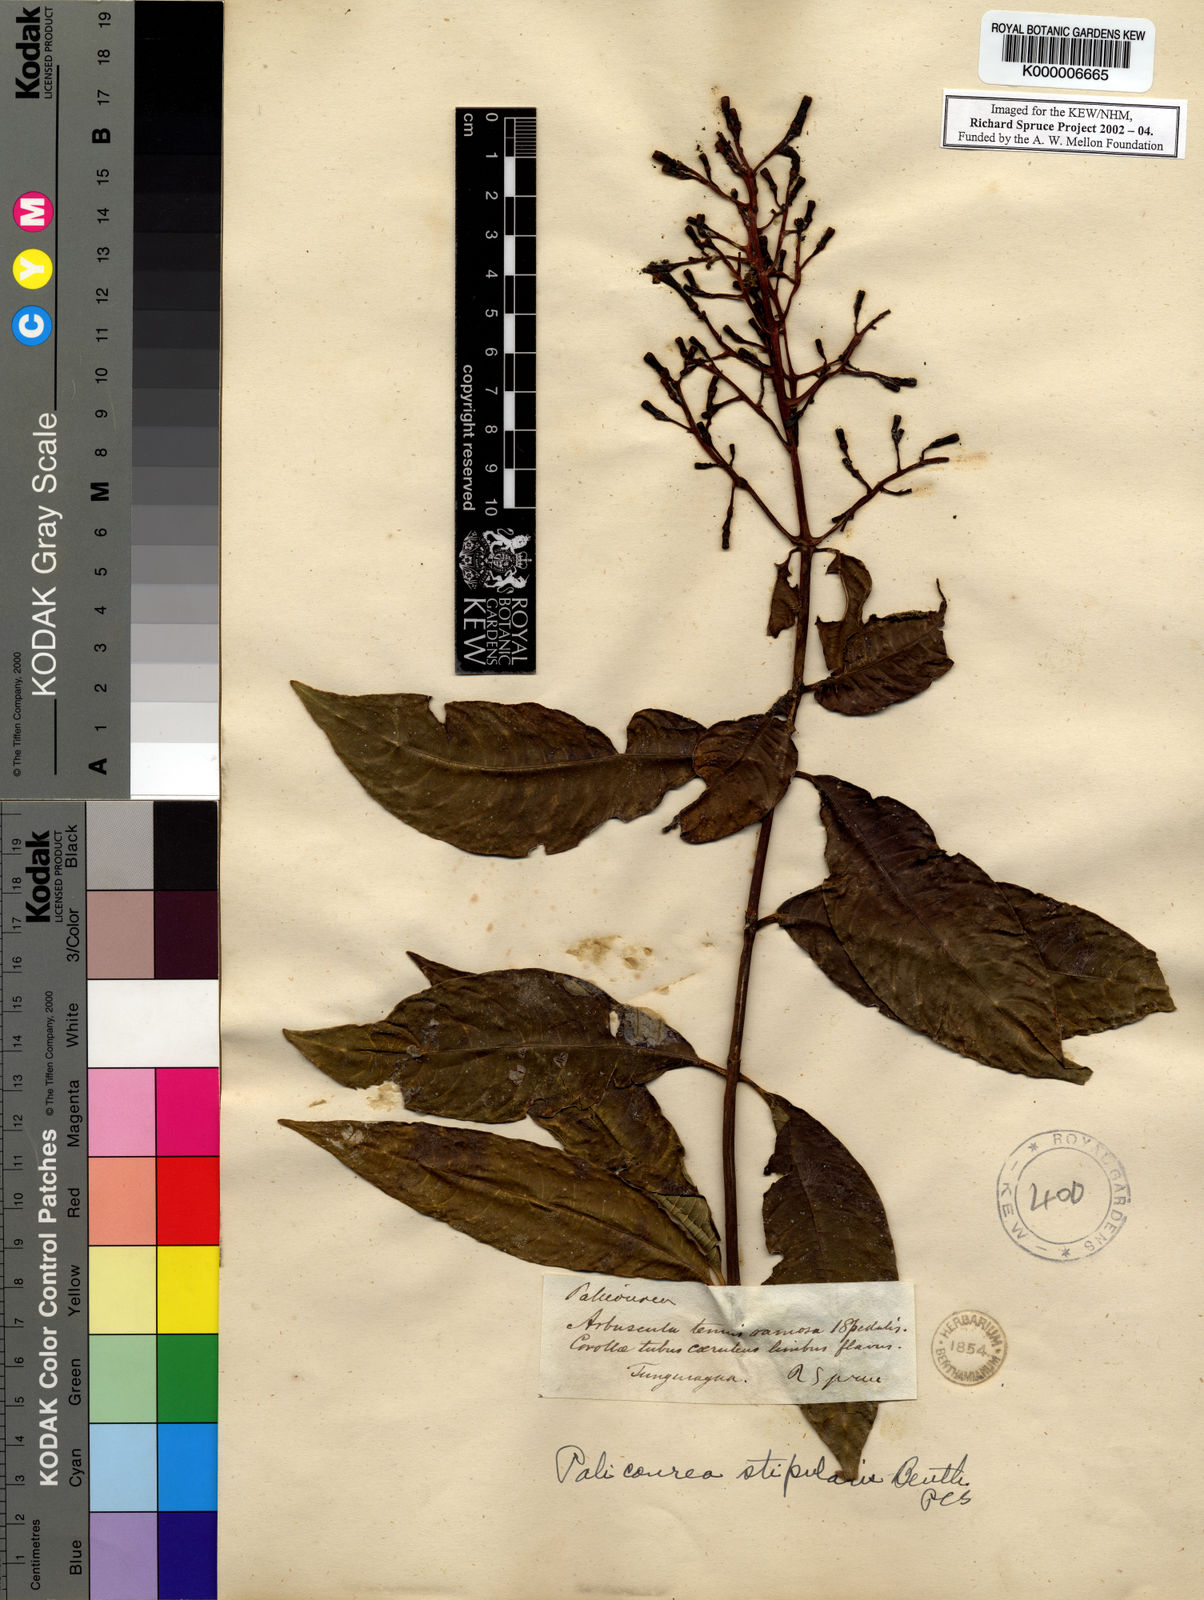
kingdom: Plantae
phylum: Tracheophyta
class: Magnoliopsida
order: Gentianales
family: Rubiaceae
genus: Palicourea
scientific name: Palicourea stipularis
